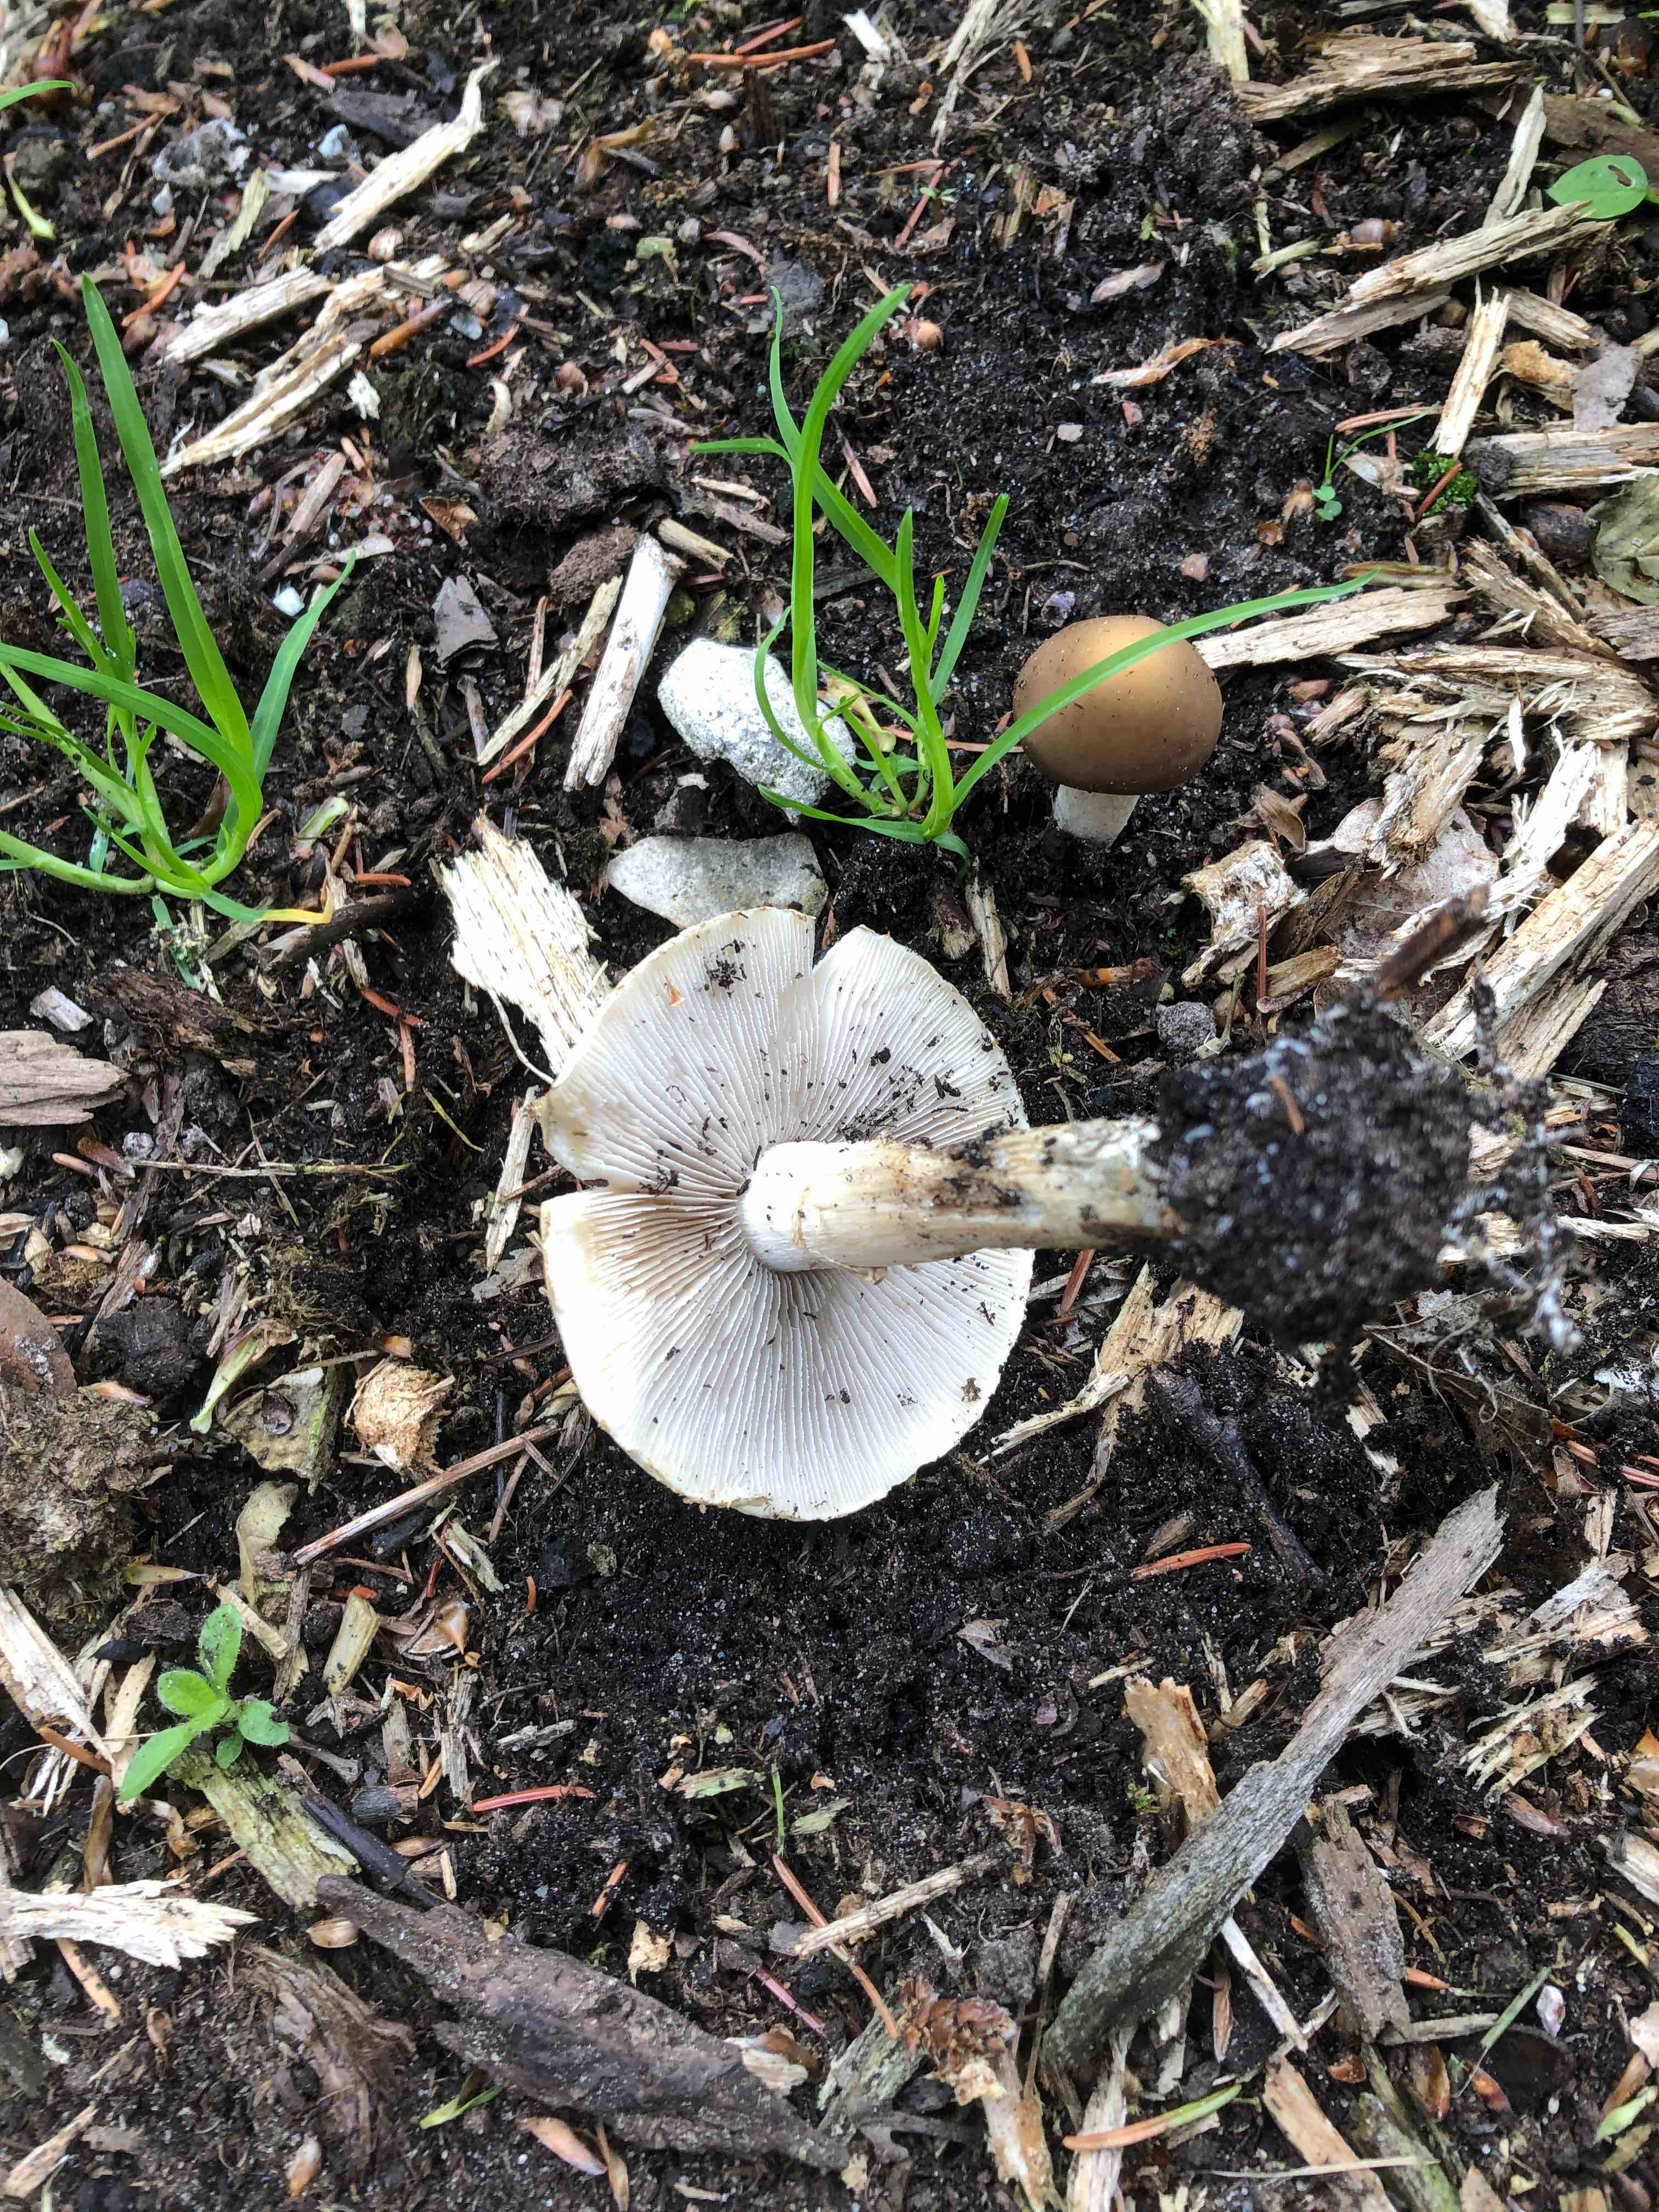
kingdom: Fungi
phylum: Basidiomycota
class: Agaricomycetes
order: Agaricales
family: Strophariaceae
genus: Agrocybe
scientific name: Agrocybe praecox
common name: tidlig agerhat
